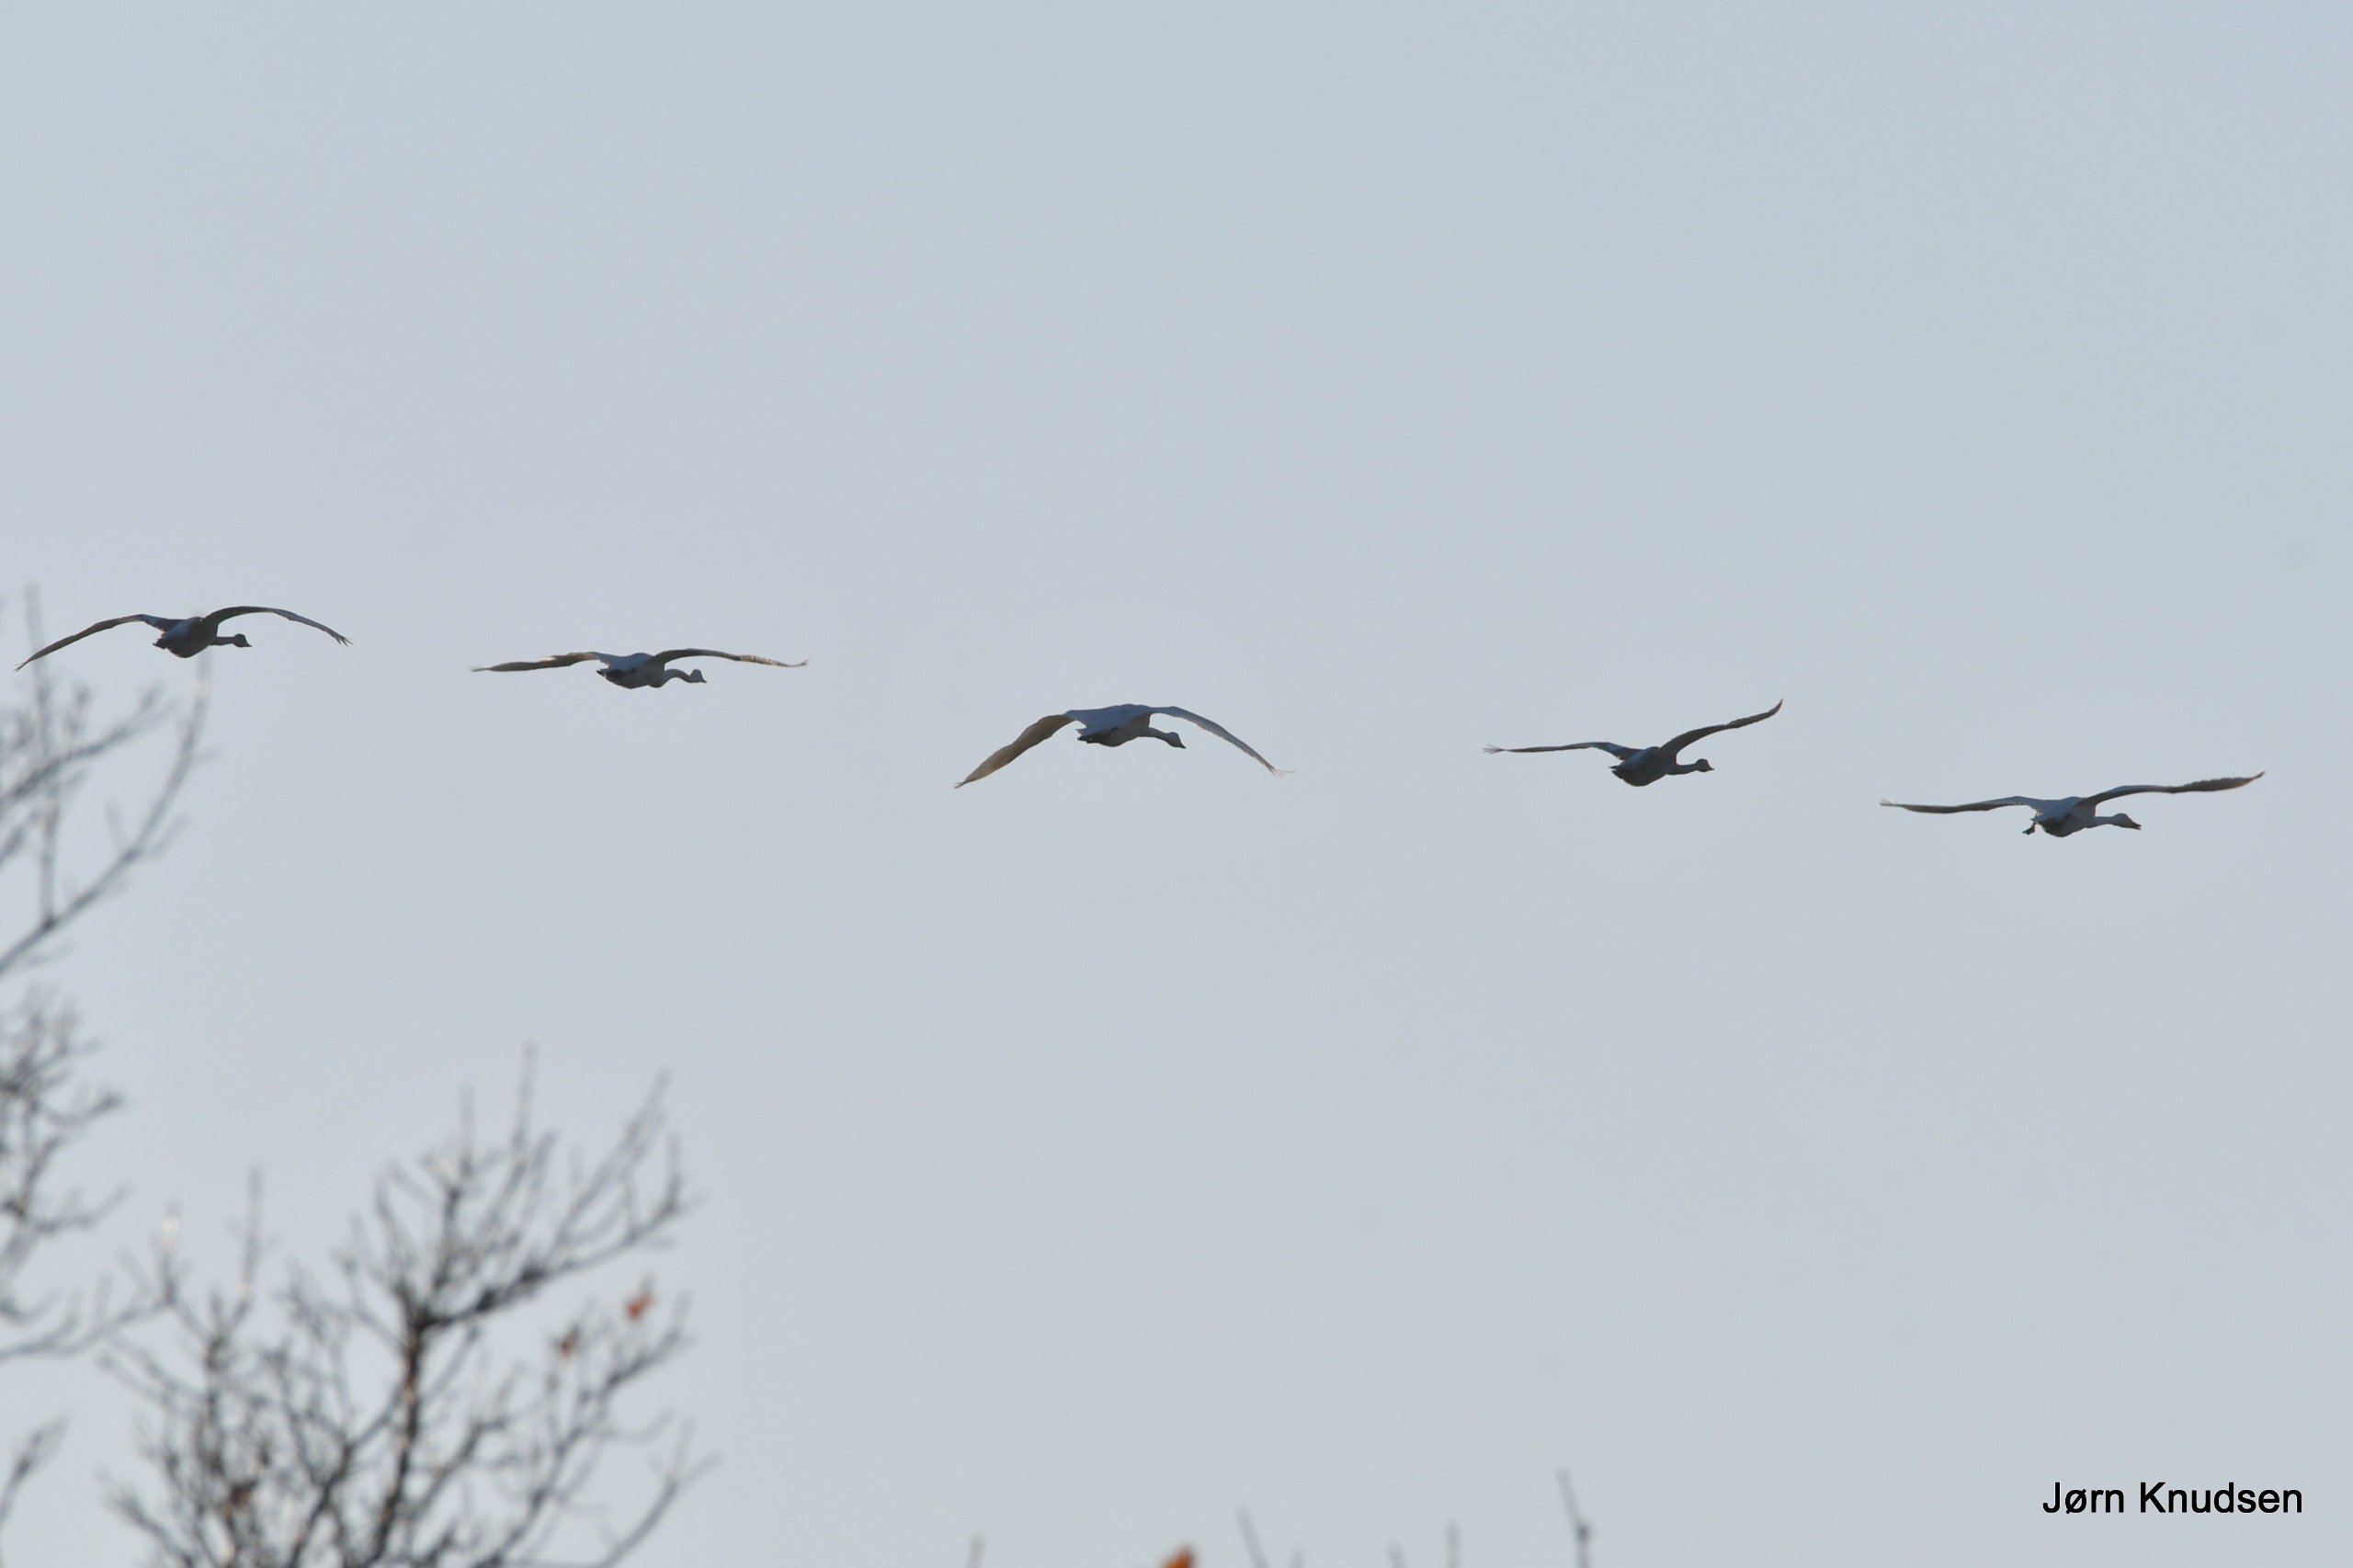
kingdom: Animalia
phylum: Chordata
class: Aves
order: Anseriformes
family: Anatidae
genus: Cygnus
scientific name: Cygnus cygnus
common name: Sangsvane
